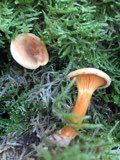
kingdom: Fungi
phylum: Basidiomycota
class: Agaricomycetes
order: Boletales
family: Hygrophoropsidaceae
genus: Hygrophoropsis
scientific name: Hygrophoropsis rufa
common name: brunfiltet orangekantarel
